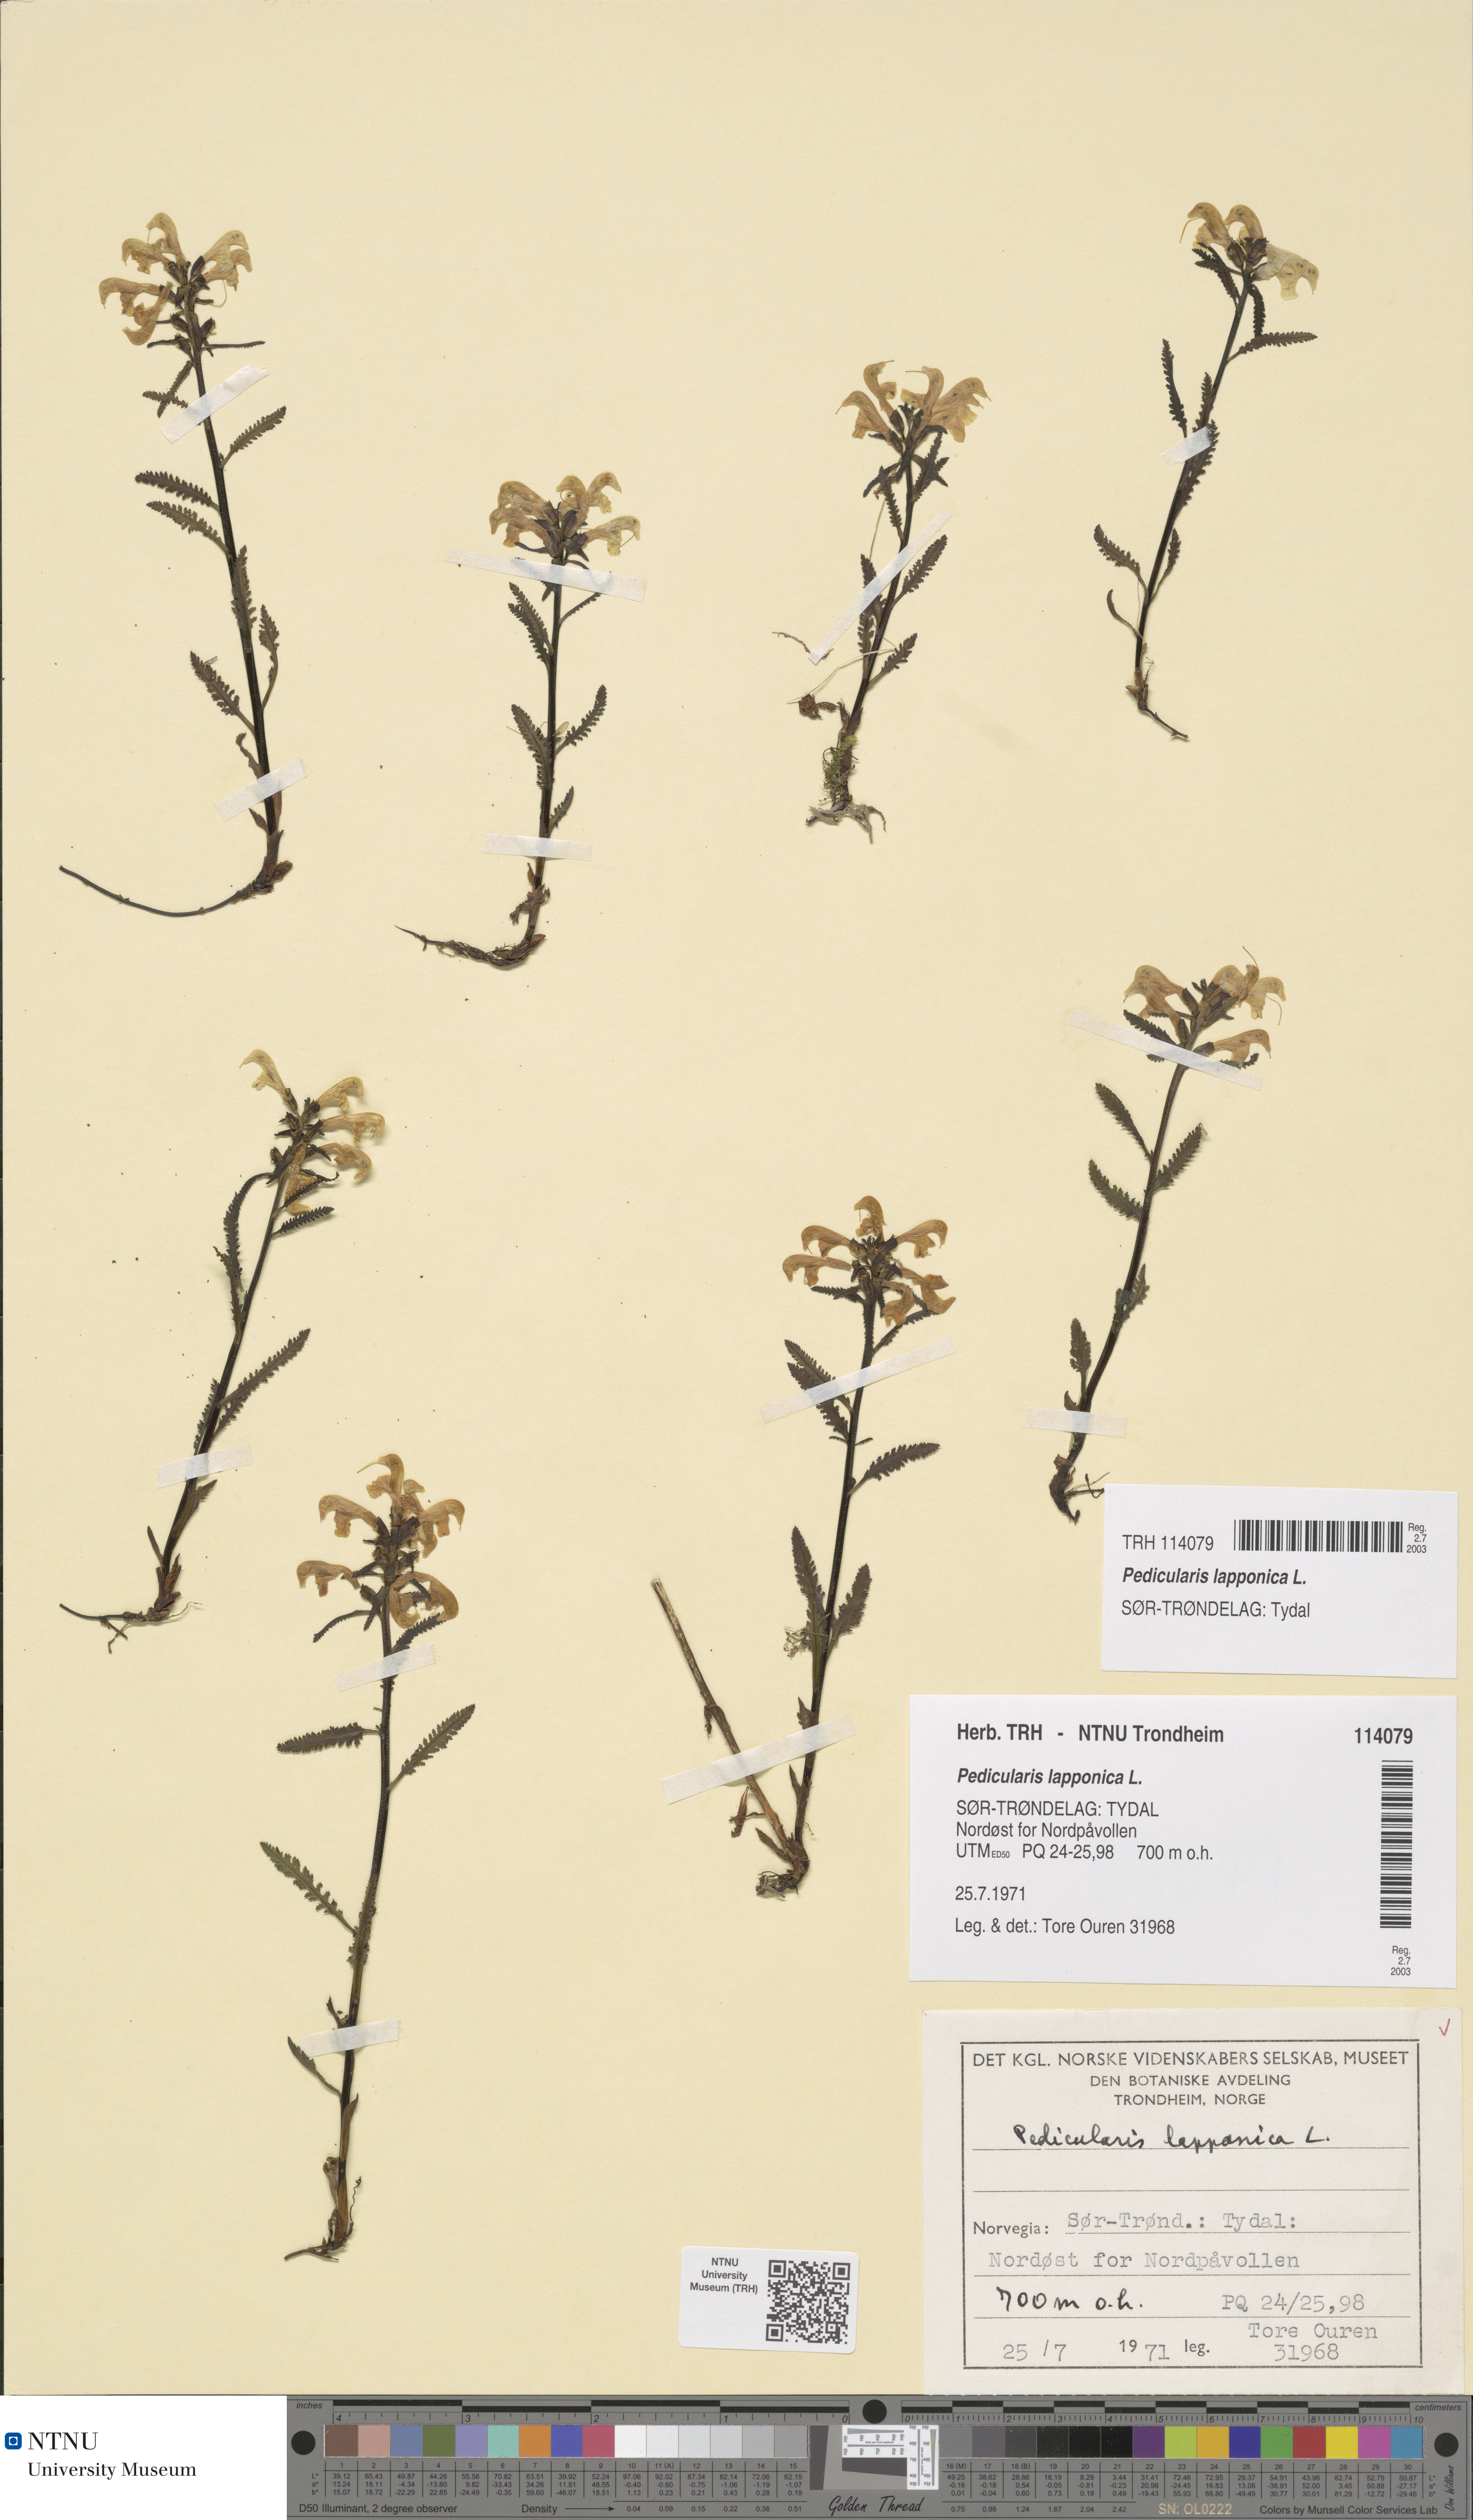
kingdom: Plantae
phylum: Tracheophyta
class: Magnoliopsida
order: Lamiales
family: Orobanchaceae
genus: Pedicularis
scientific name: Pedicularis lapponica
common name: Lapland lousewort
